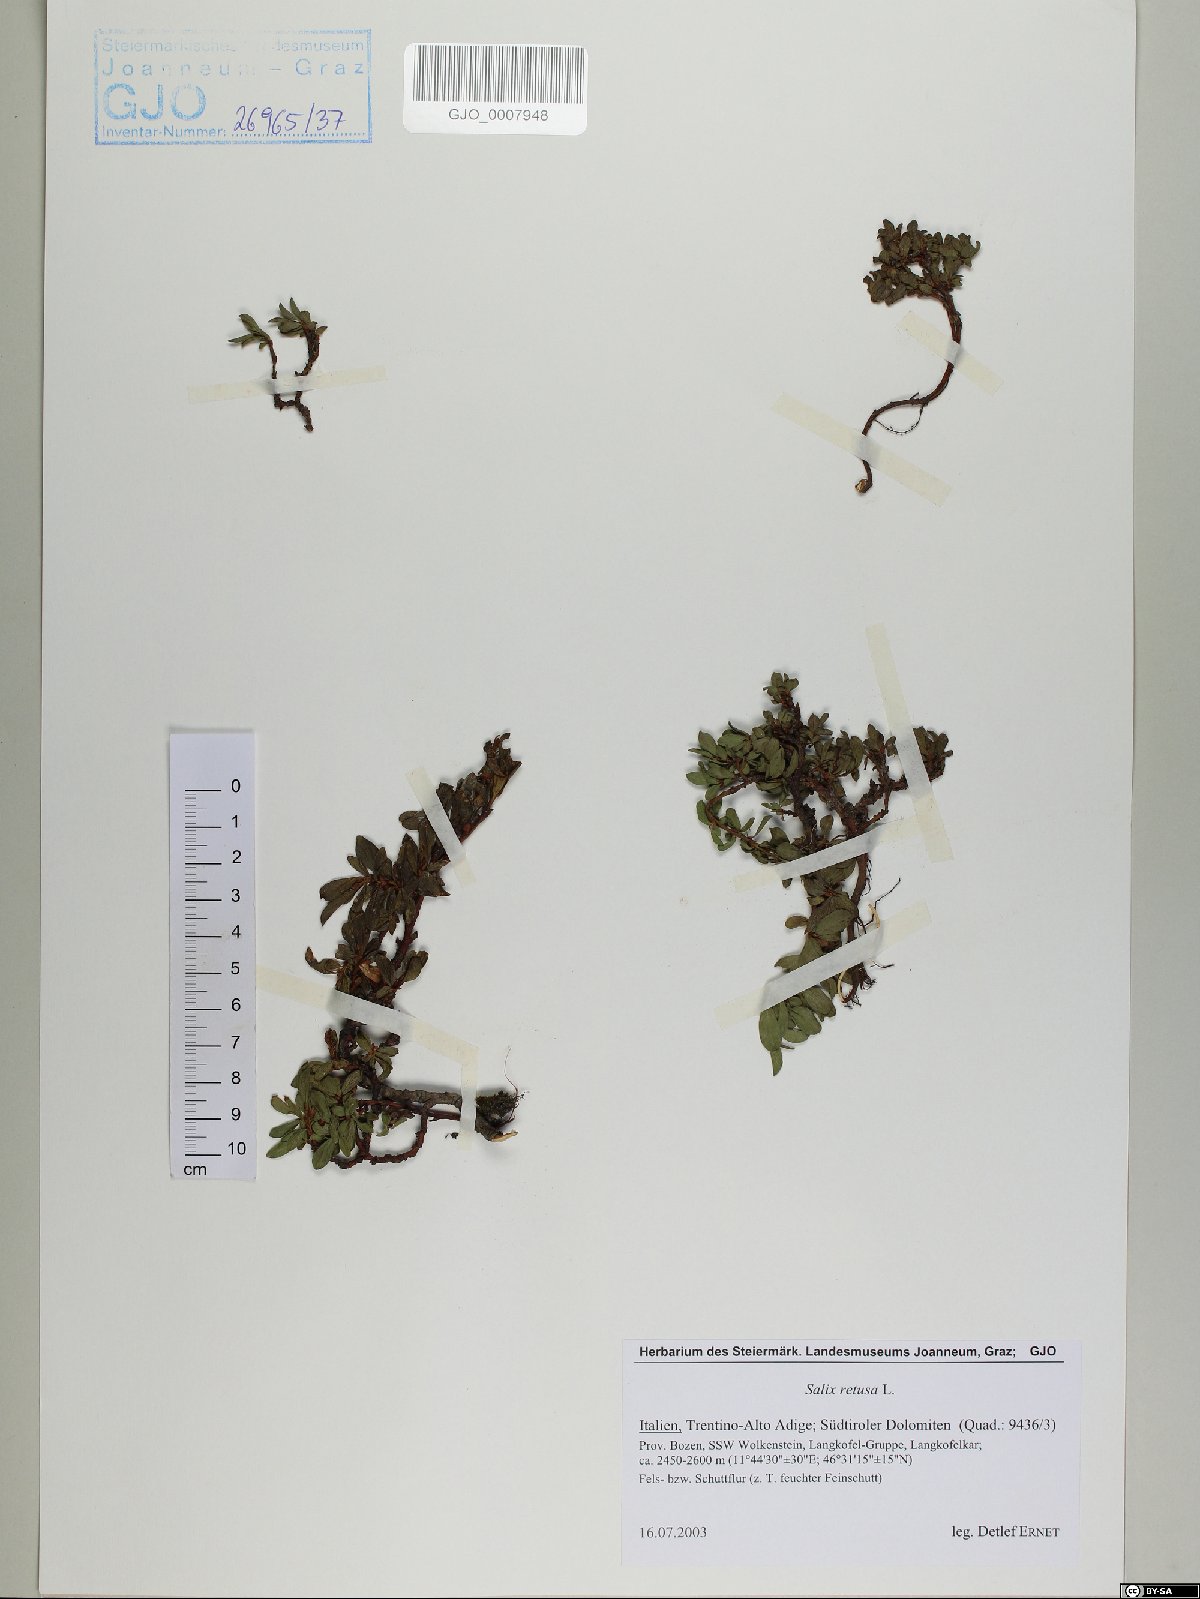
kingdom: Plantae
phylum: Tracheophyta
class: Magnoliopsida
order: Malpighiales
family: Salicaceae
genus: Salix
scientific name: Salix retusa
